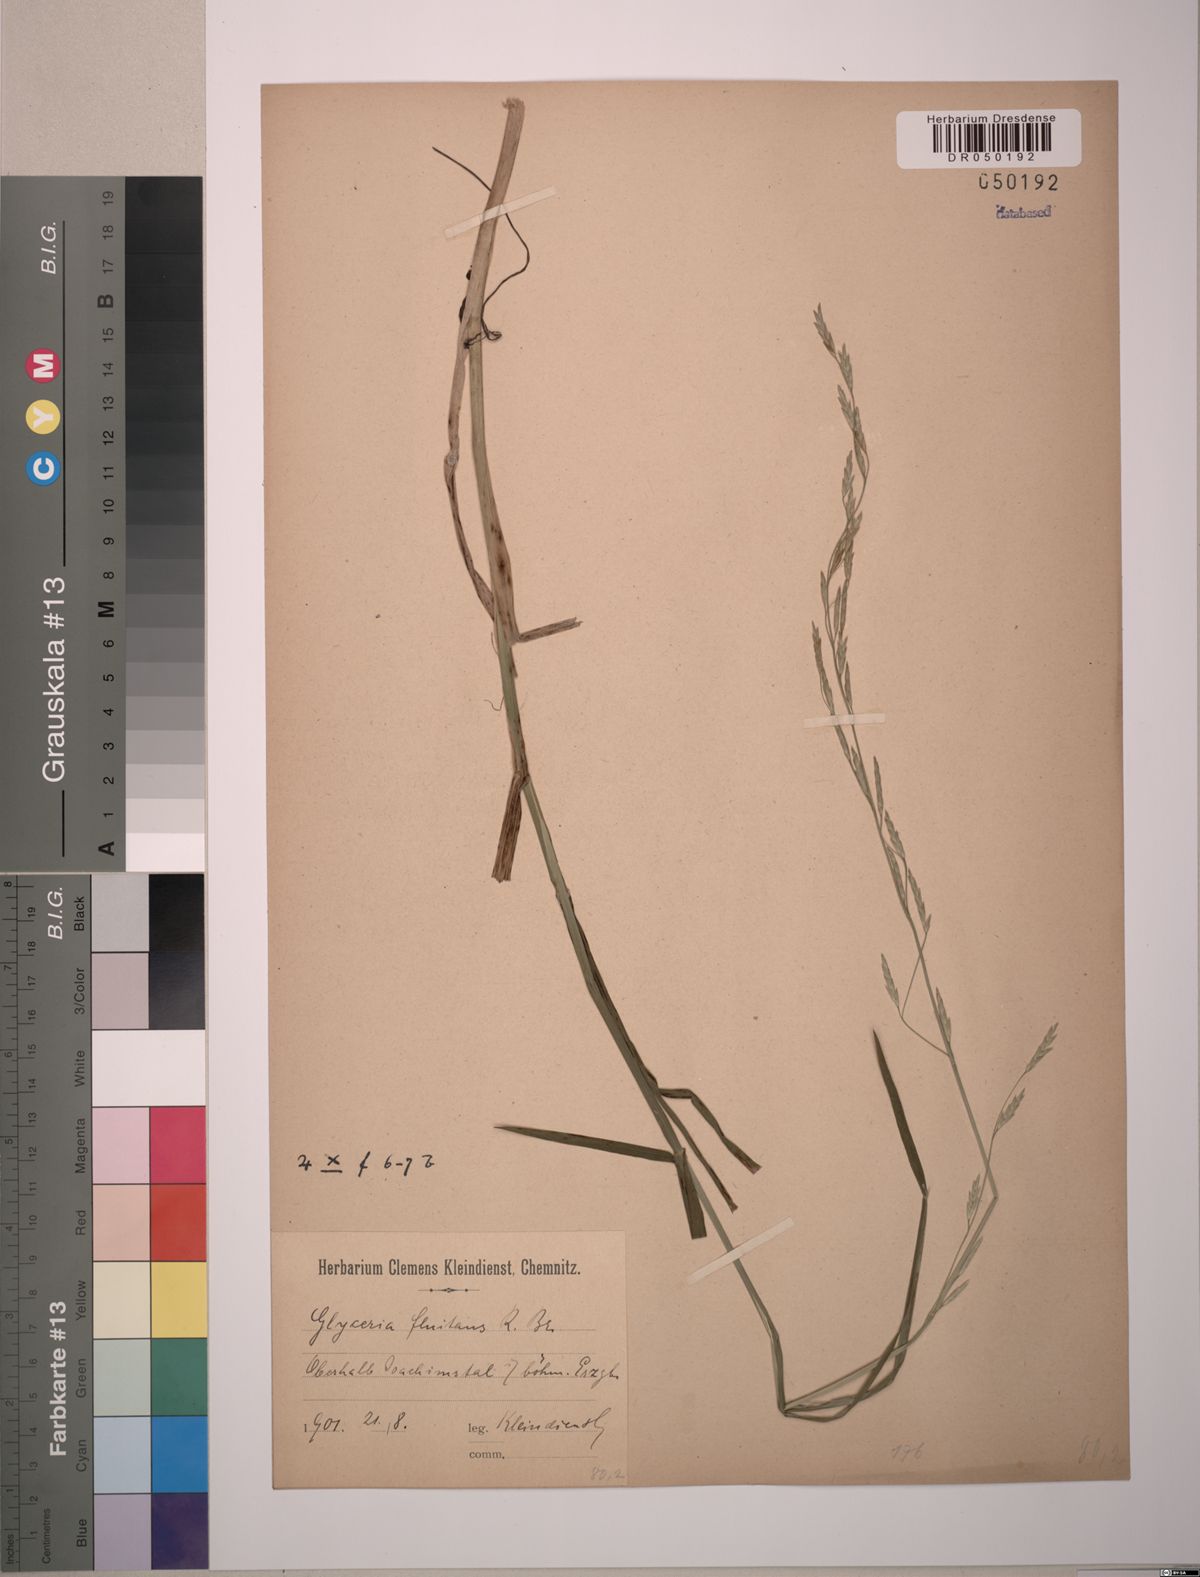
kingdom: Plantae
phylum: Tracheophyta
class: Liliopsida
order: Poales
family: Poaceae
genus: Glyceria
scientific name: Glyceria fluitans
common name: Floating sweet-grass
